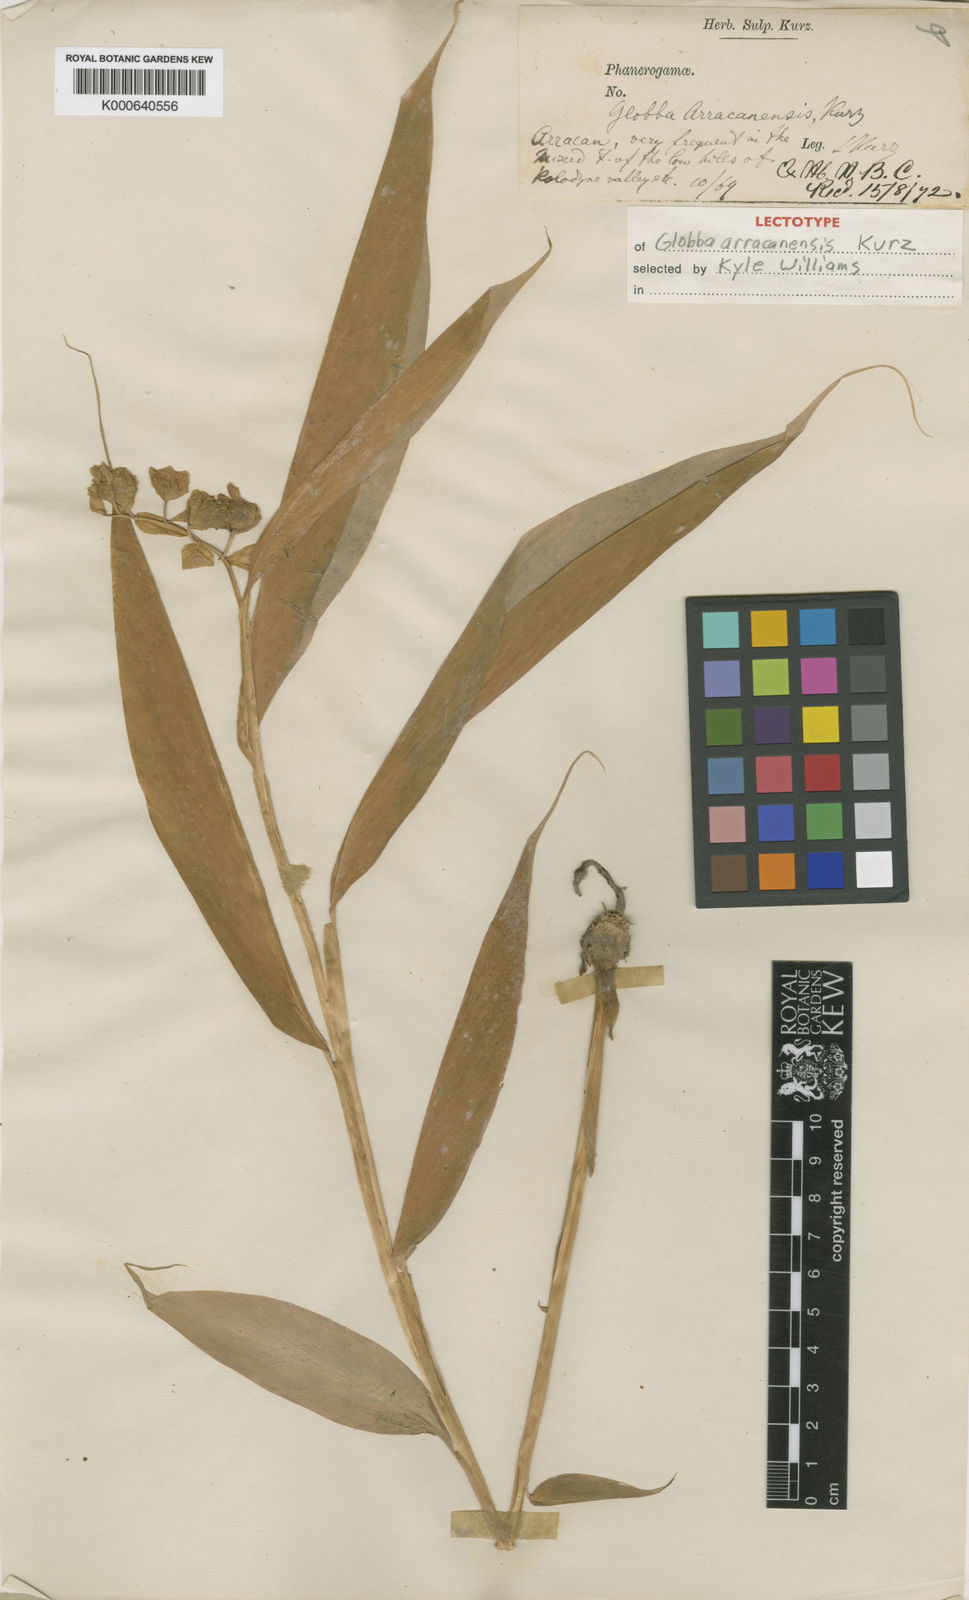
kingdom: Plantae
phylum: Tracheophyta
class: Liliopsida
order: Zingiberales
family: Zingiberaceae
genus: Globba
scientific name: Globba arracanensis
